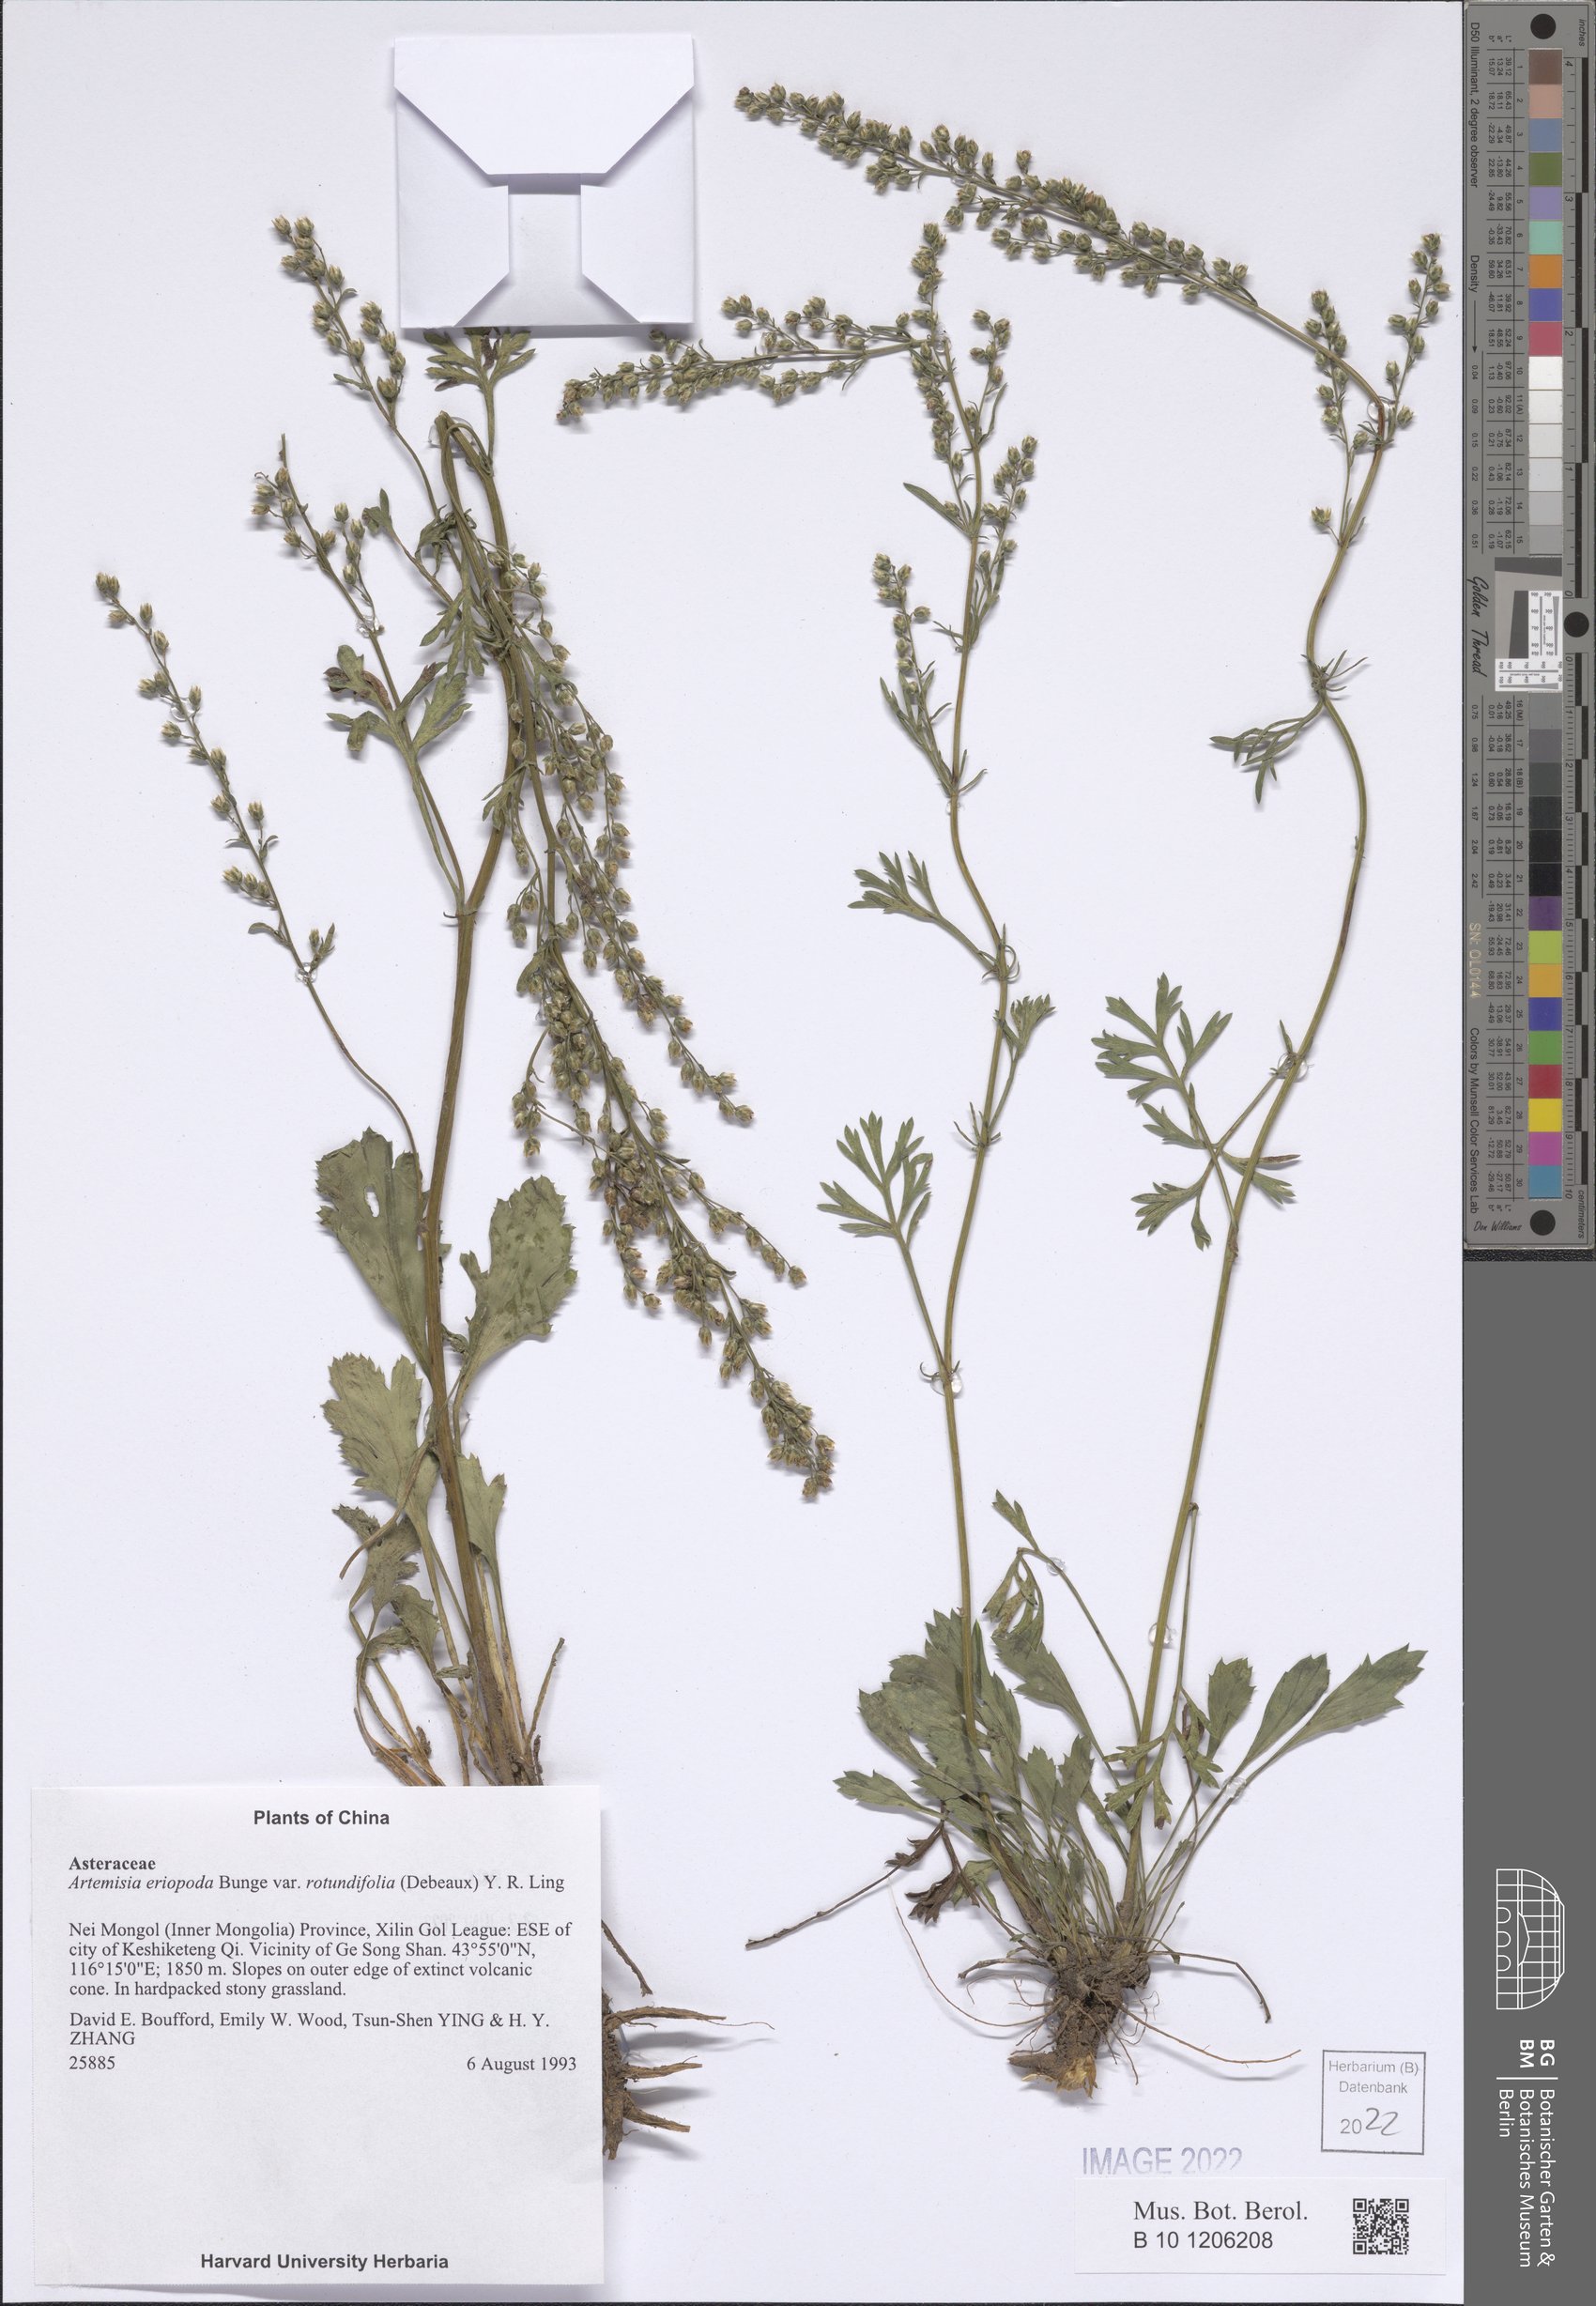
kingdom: Plantae
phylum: Tracheophyta
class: Magnoliopsida
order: Asterales
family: Asteraceae
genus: Artemisia
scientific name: Artemisia eriopoda
